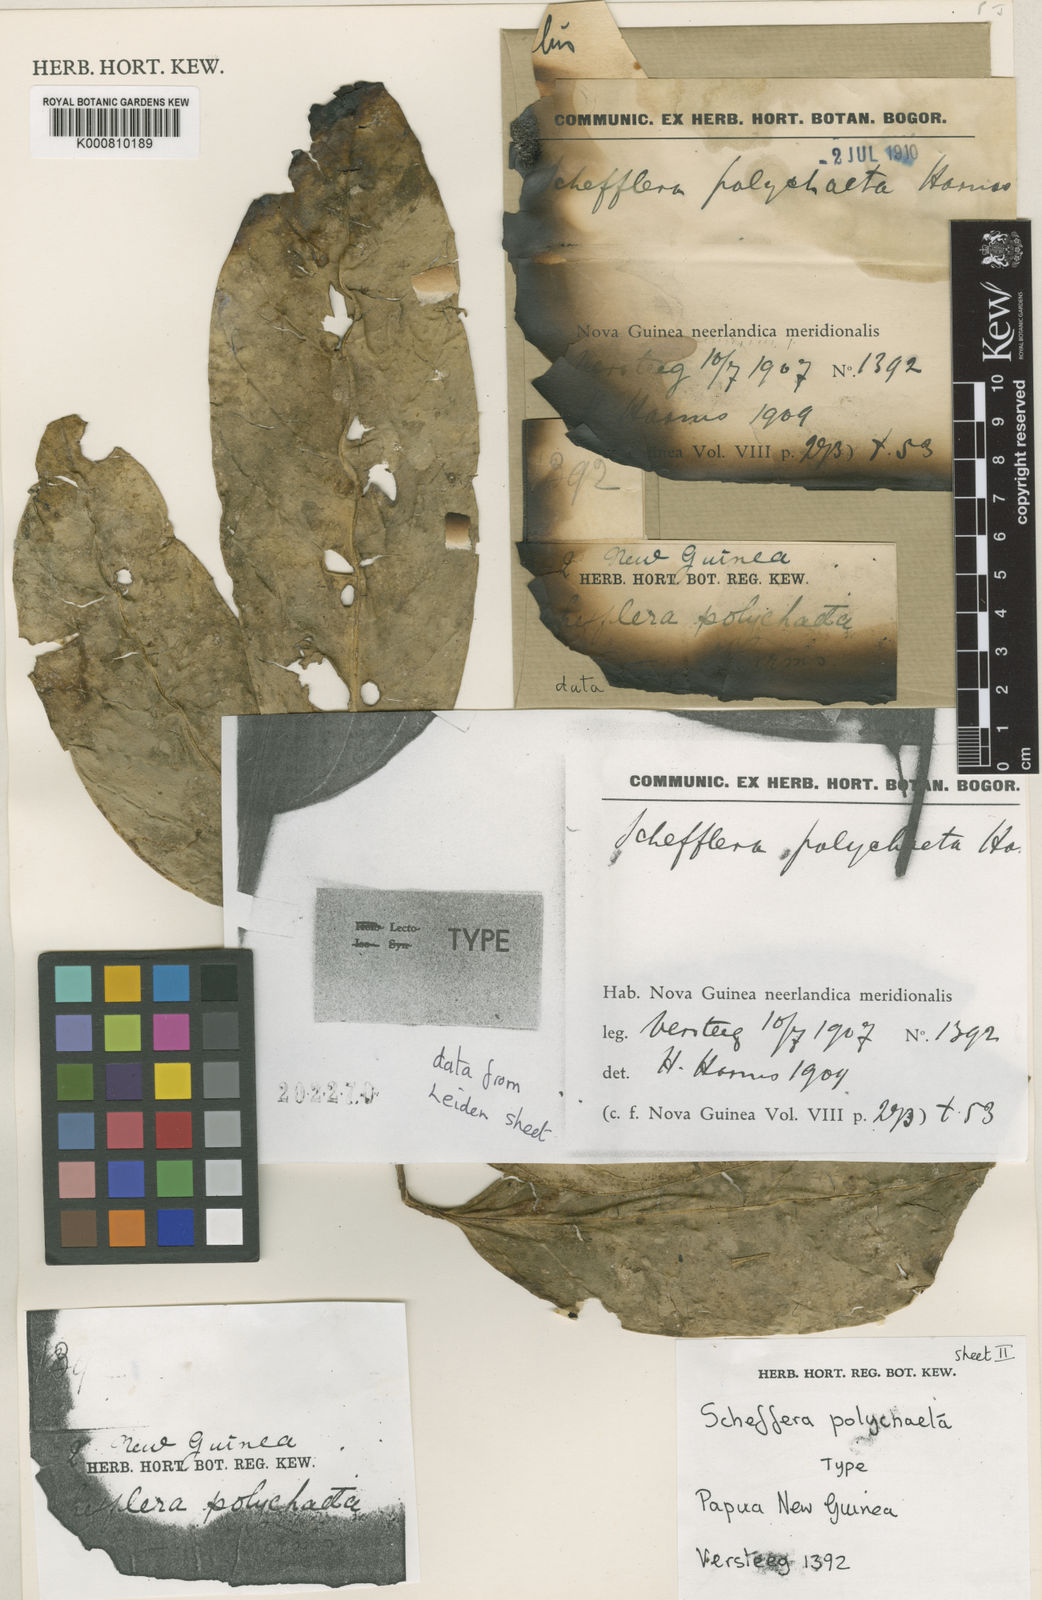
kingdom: Plantae
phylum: Tracheophyta
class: Magnoliopsida
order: Apiales
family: Araliaceae
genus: Heptapleurum
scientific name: Heptapleurum polychaetum
